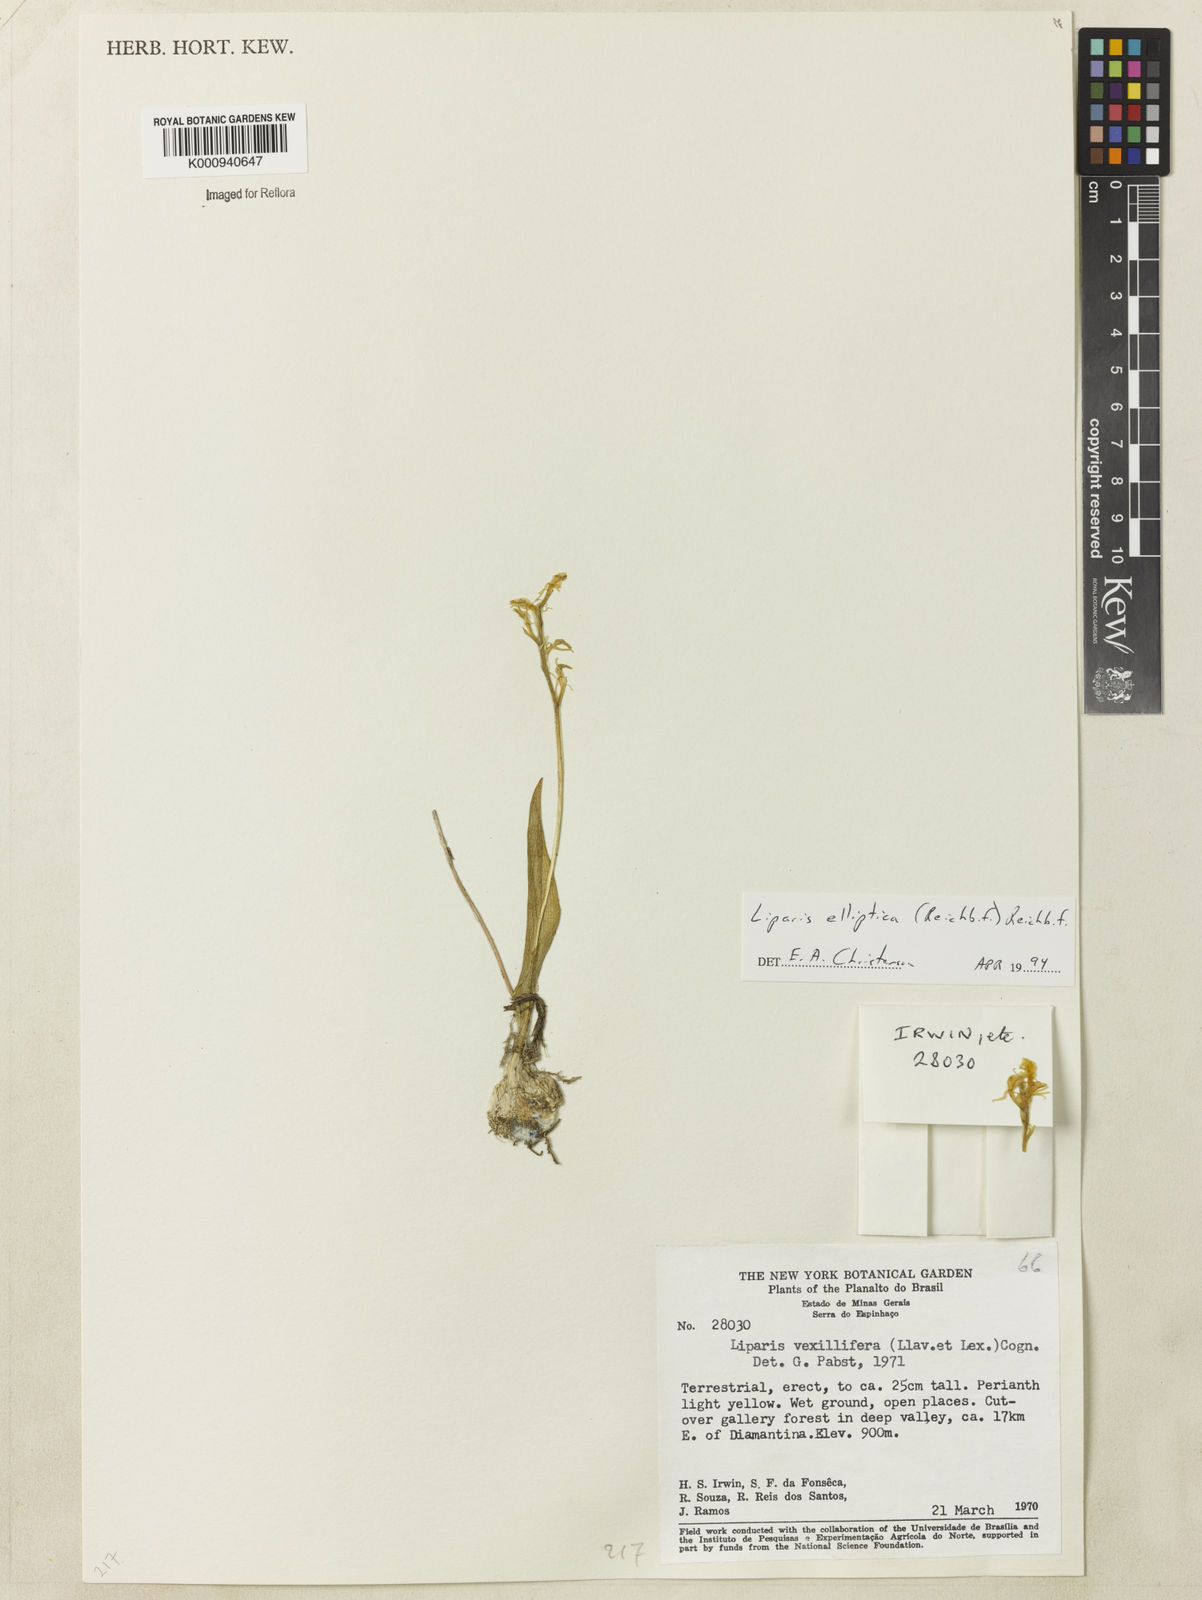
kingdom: Plantae
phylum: Tracheophyta
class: Liliopsida
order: Asparagales
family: Orchidaceae
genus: Liparis
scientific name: Liparis jamaicensis
